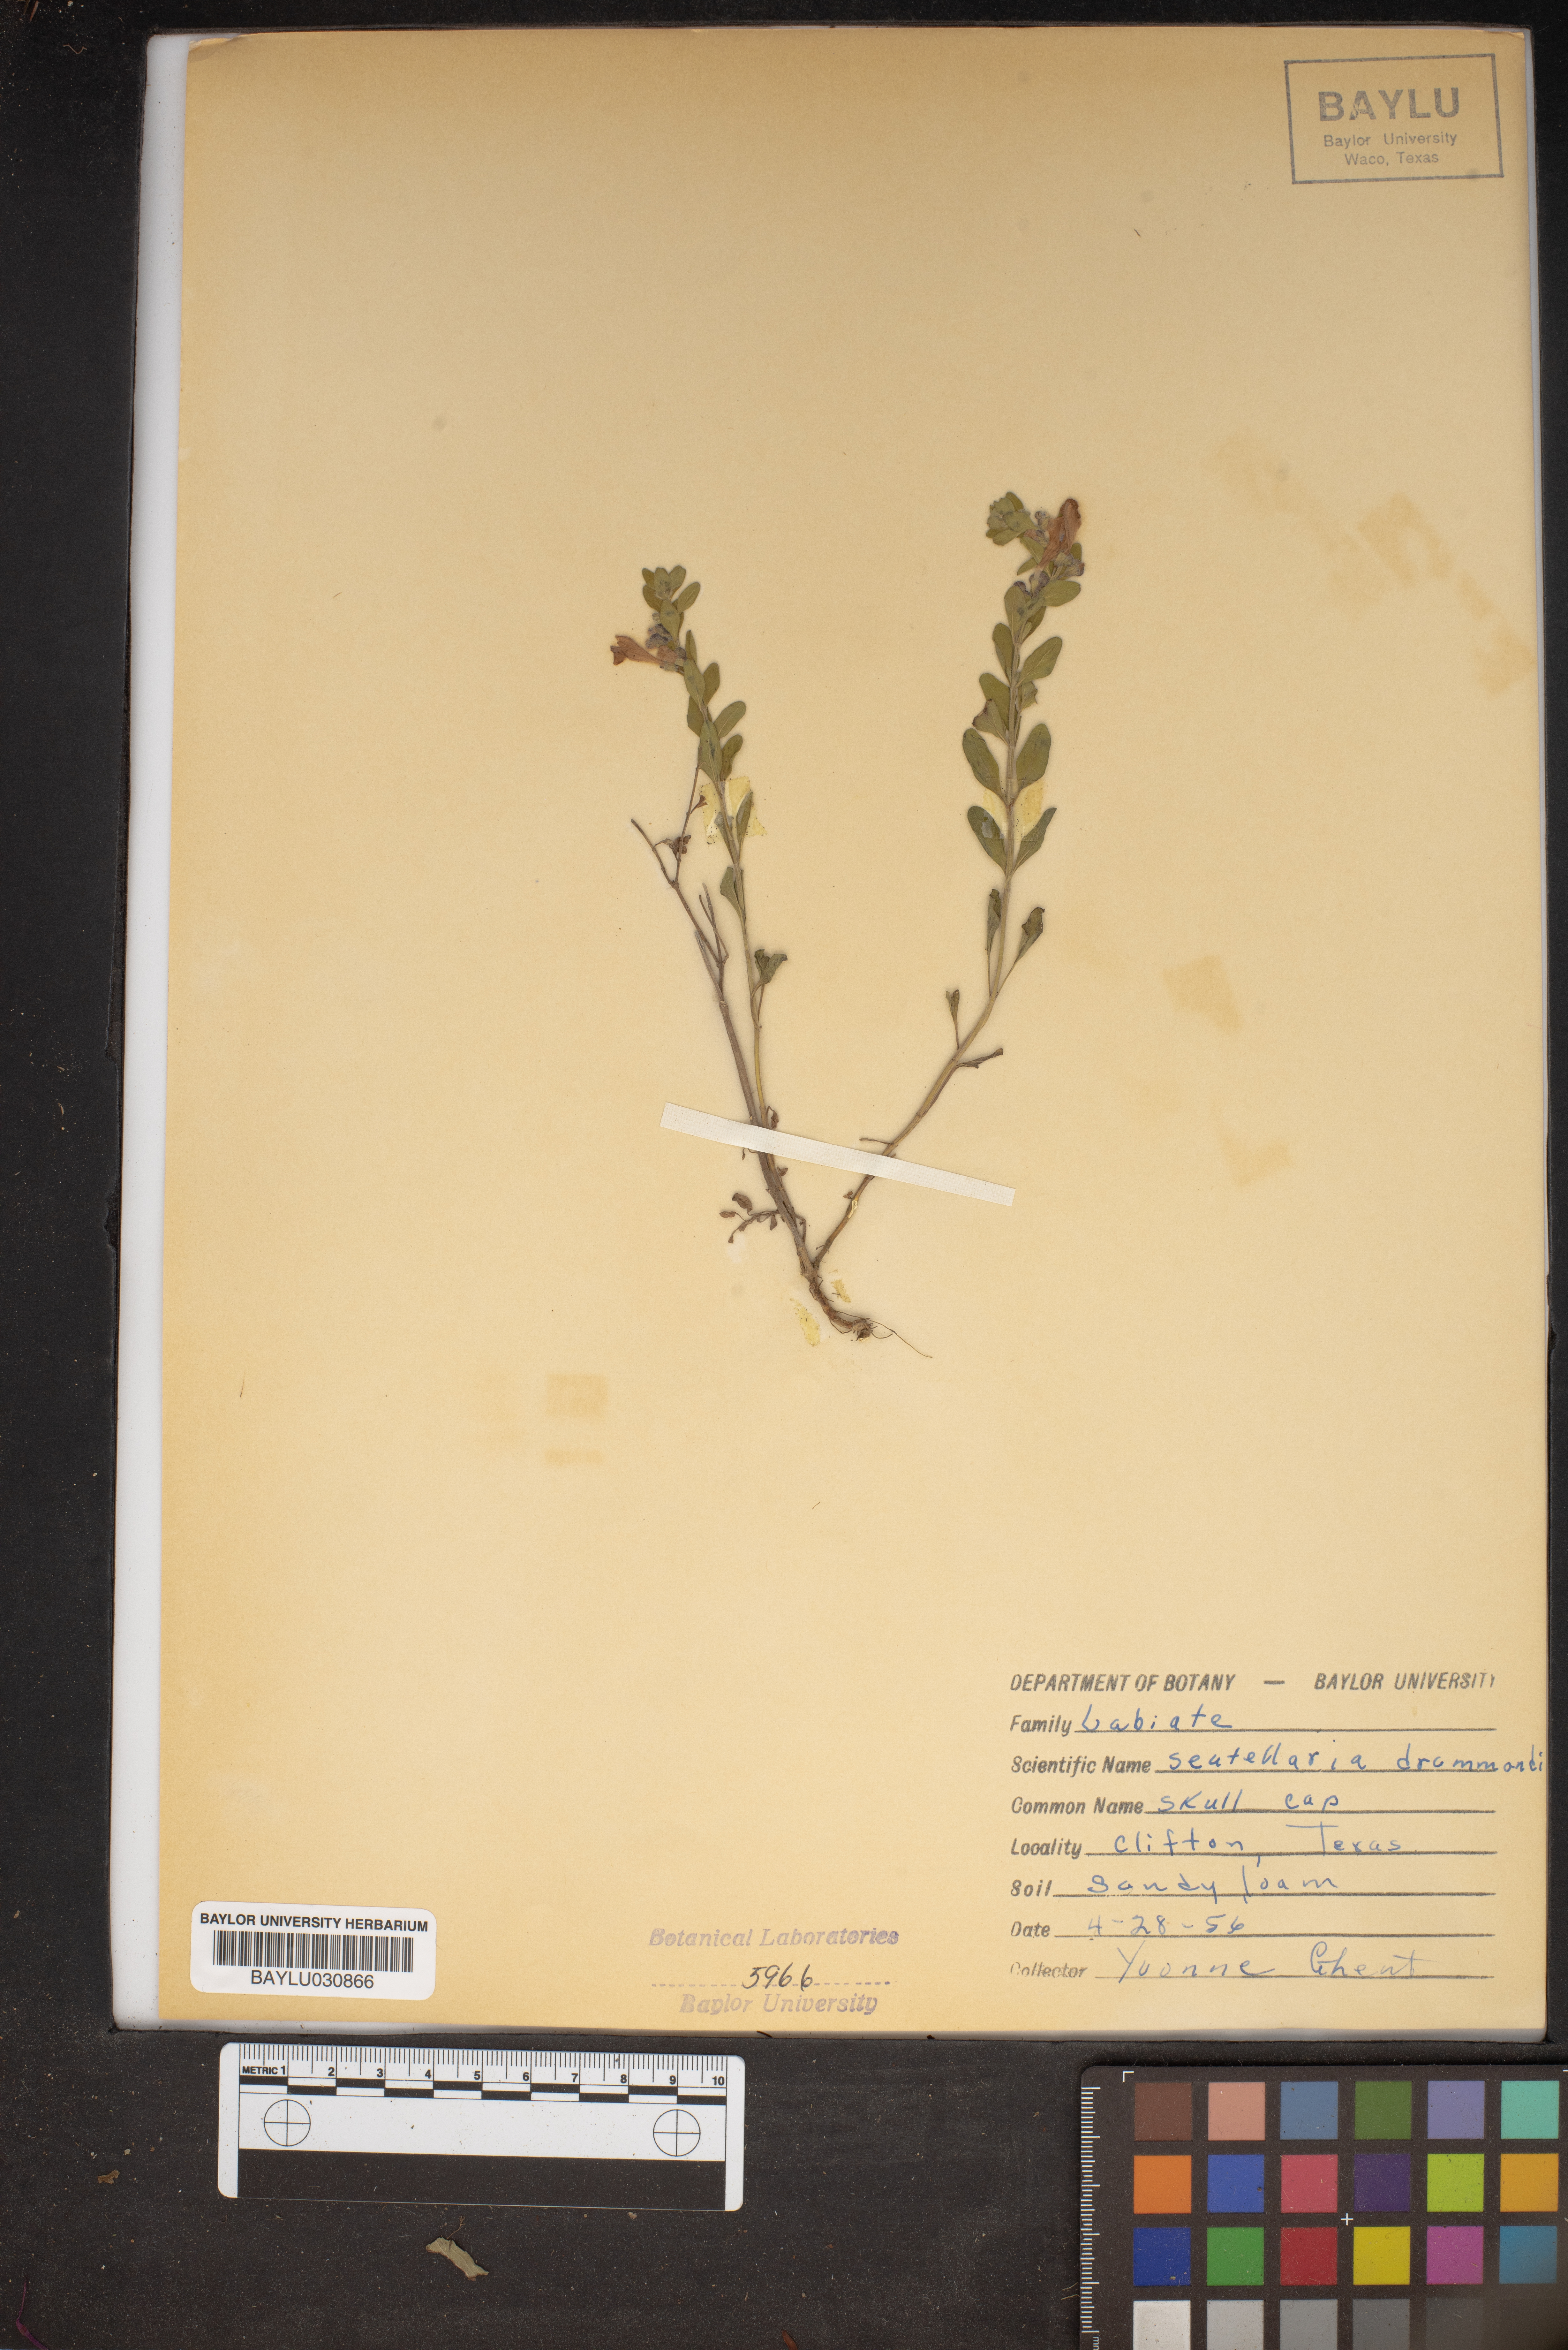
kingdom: Plantae
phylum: Tracheophyta
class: Magnoliopsida
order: Lamiales
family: Lamiaceae
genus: Scutellaria
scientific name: Scutellaria drummondii
